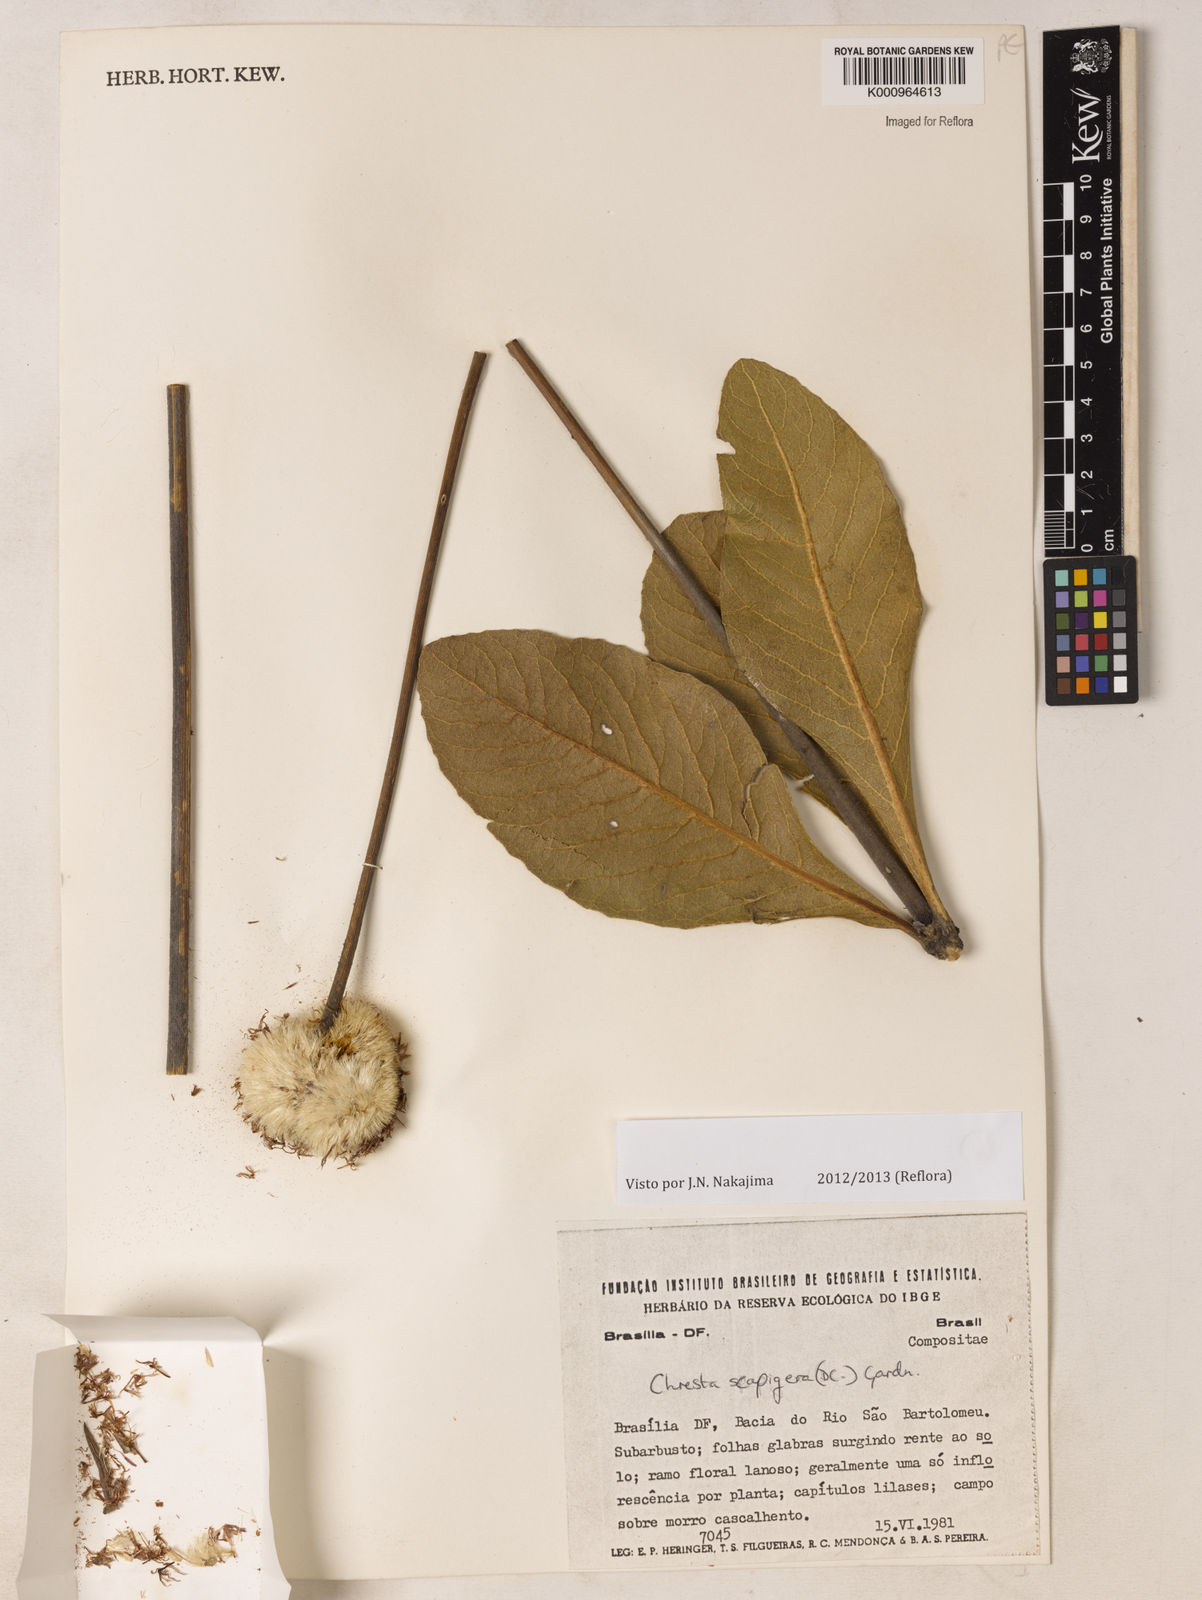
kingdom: Plantae
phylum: Tracheophyta
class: Magnoliopsida
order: Asterales
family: Asteraceae
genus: Chresta
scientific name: Chresta scapigera
